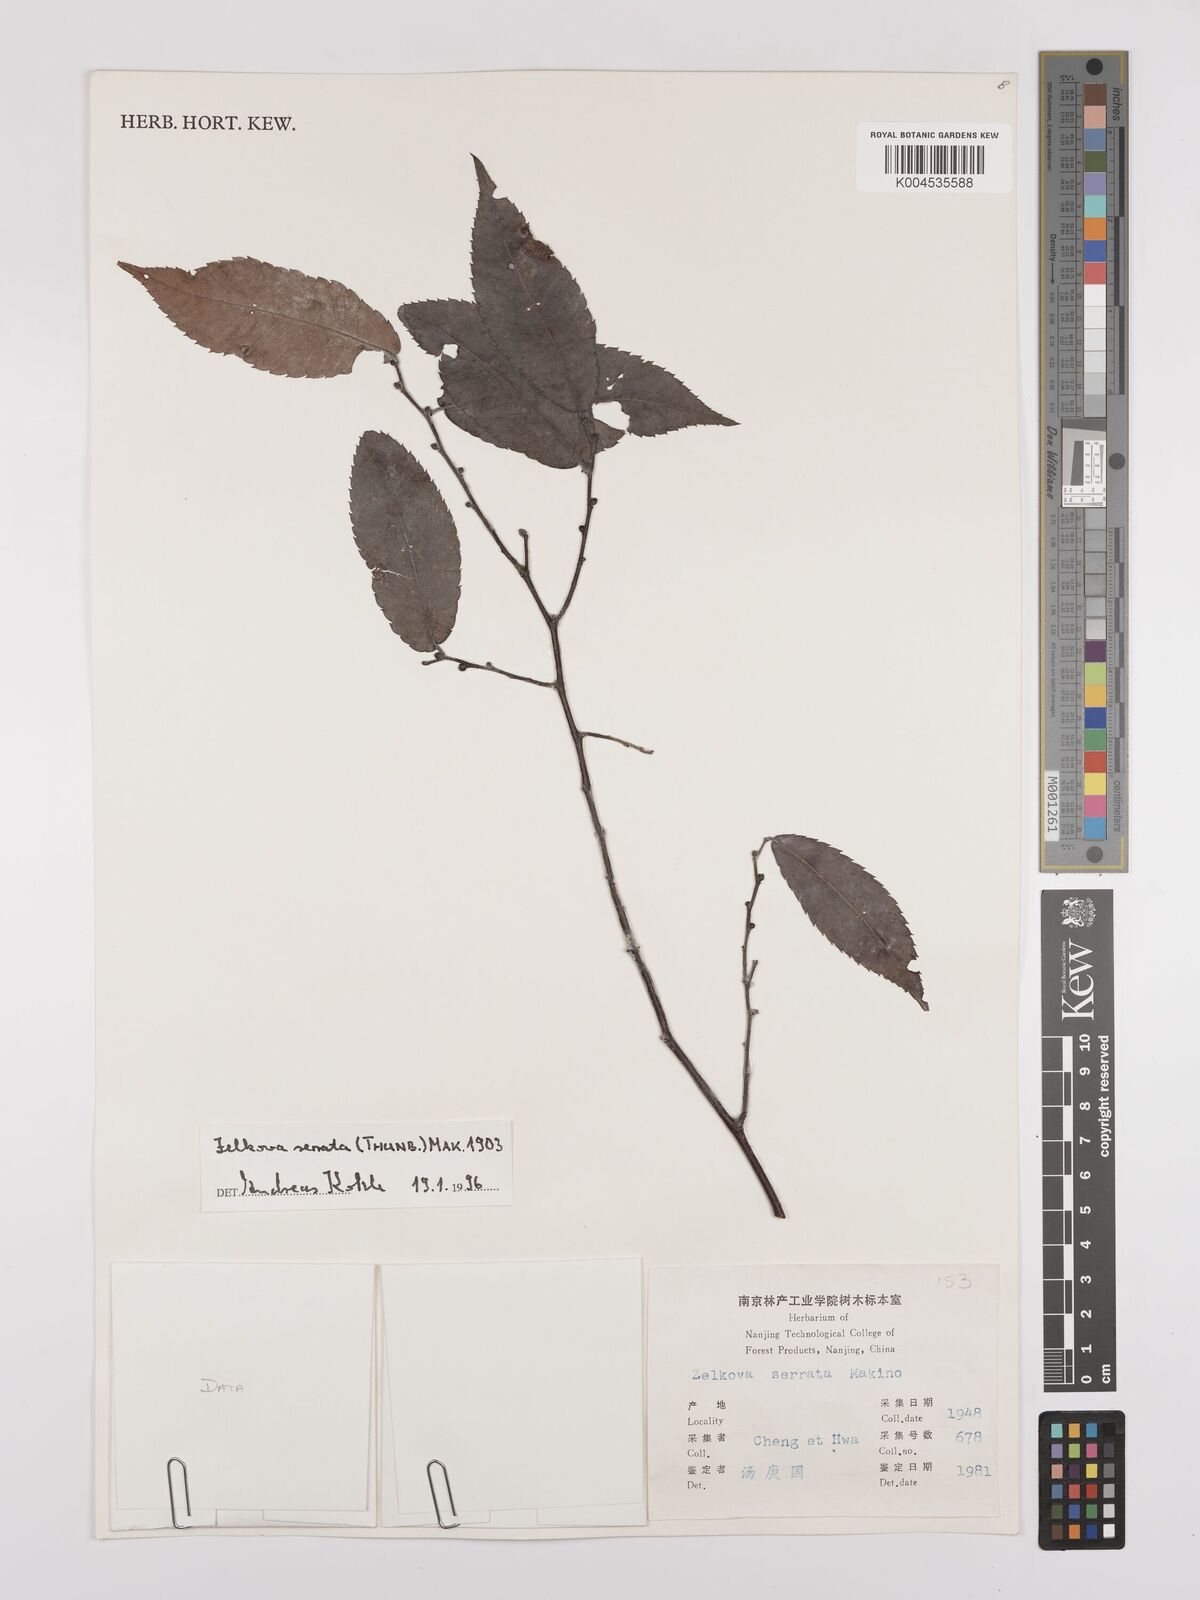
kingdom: Plantae
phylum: Tracheophyta
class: Magnoliopsida
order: Rosales
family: Ulmaceae
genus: Zelkova
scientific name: Zelkova serrata
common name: Japanese zelkova
